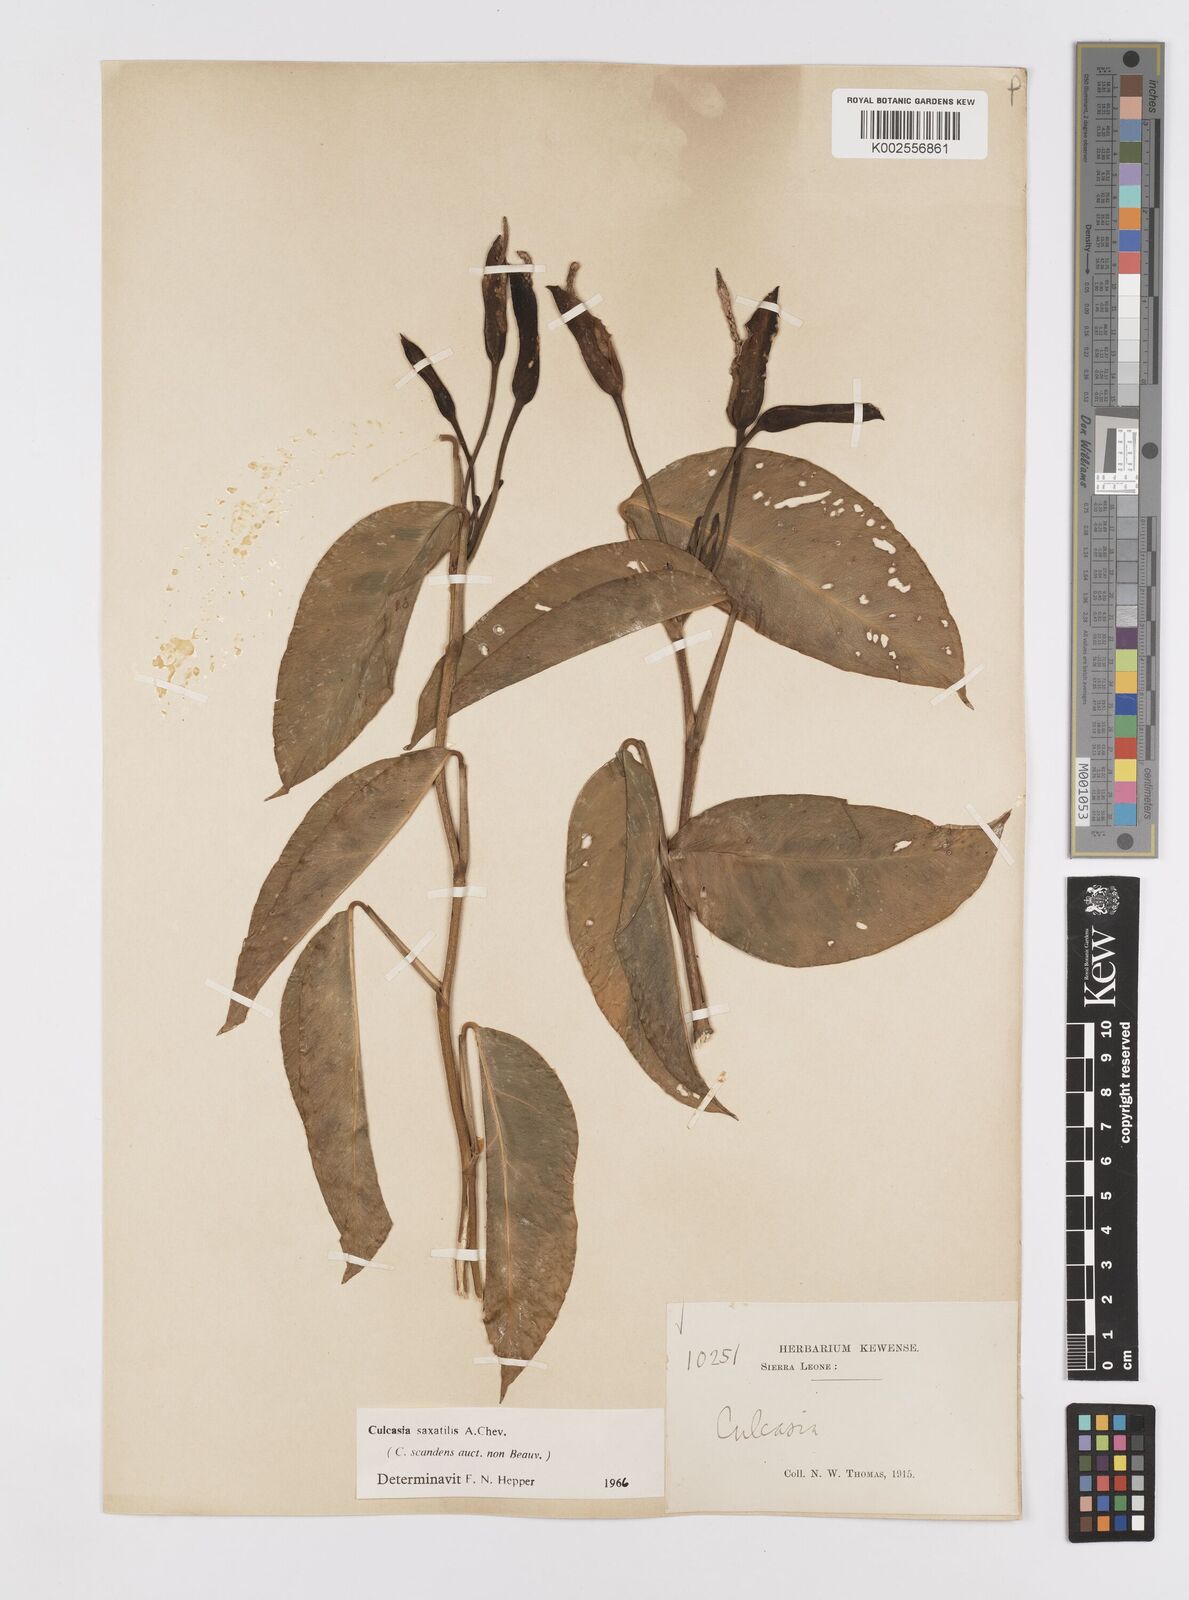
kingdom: Plantae
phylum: Tracheophyta
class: Liliopsida
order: Alismatales
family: Araceae
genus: Culcasia
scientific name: Culcasia scandens
